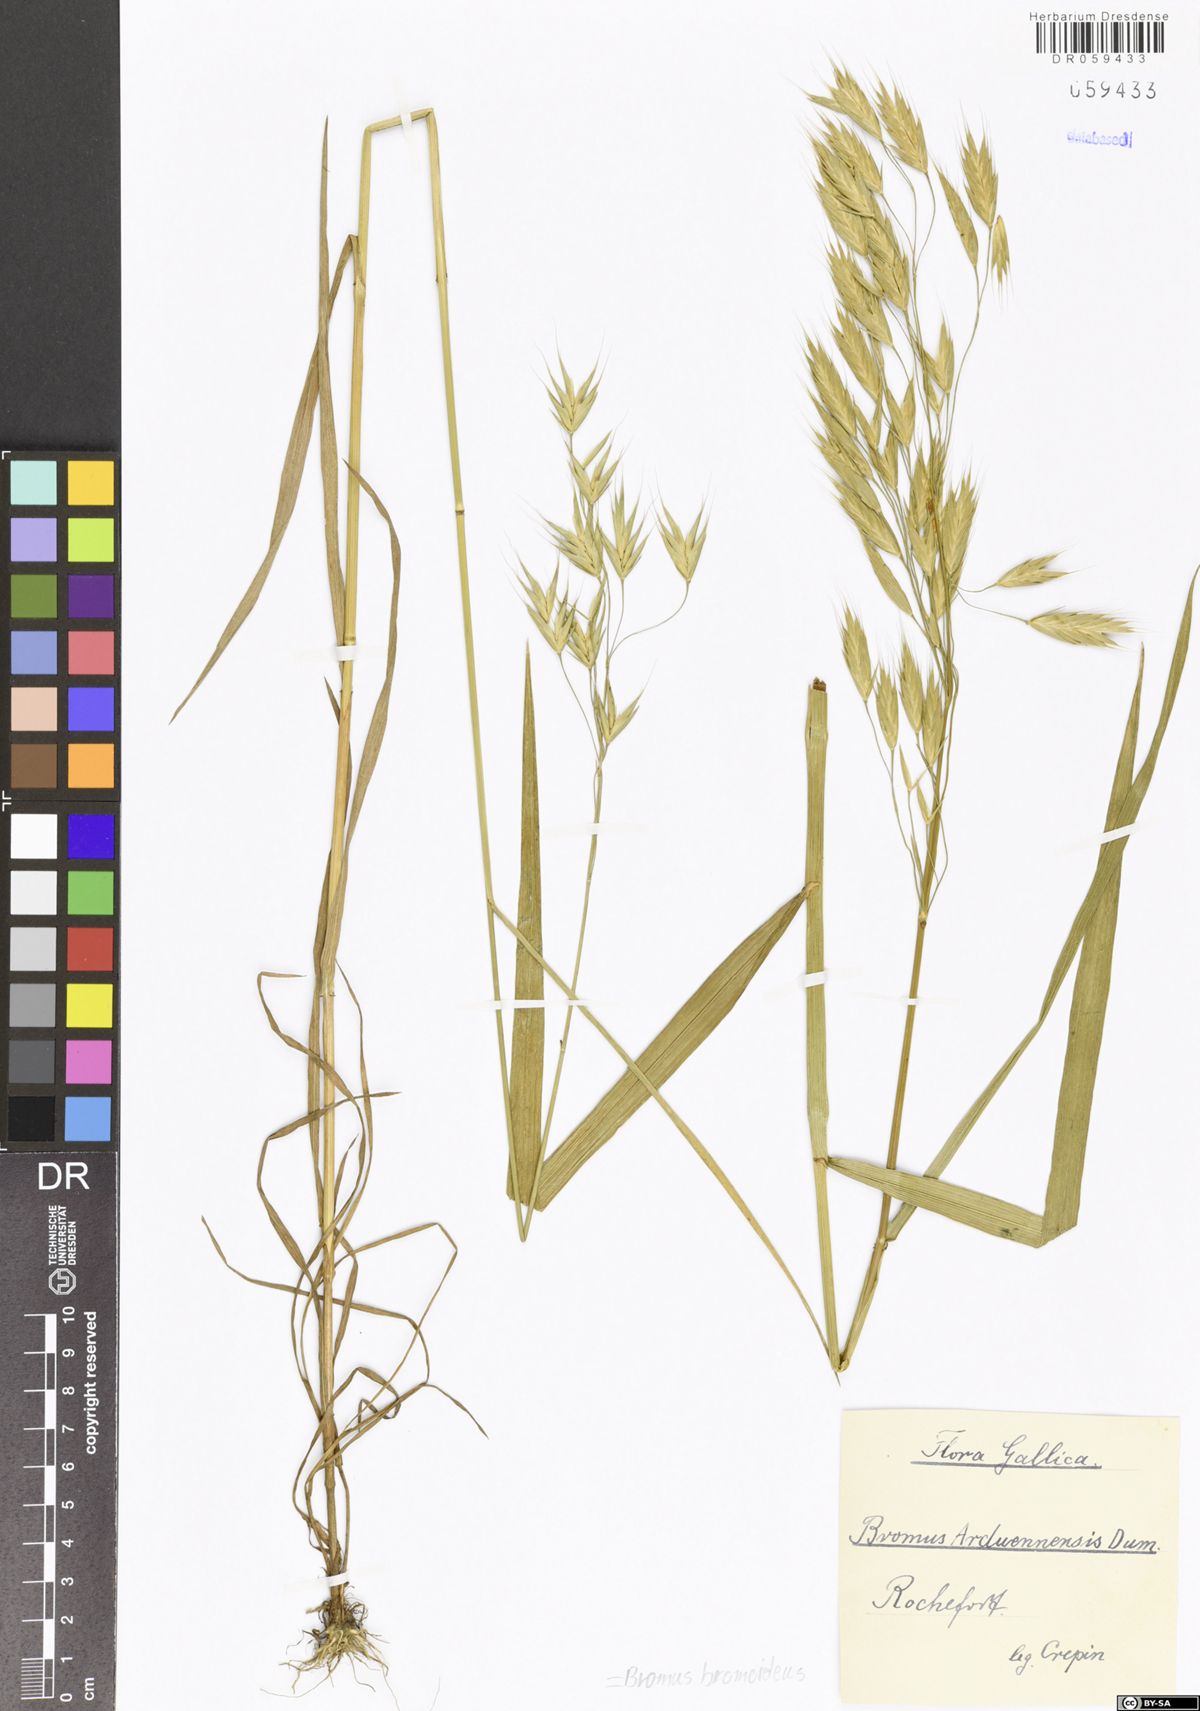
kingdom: Plantae
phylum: Tracheophyta
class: Liliopsida
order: Poales
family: Poaceae
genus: Bromus
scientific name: Bromus bromoideus
